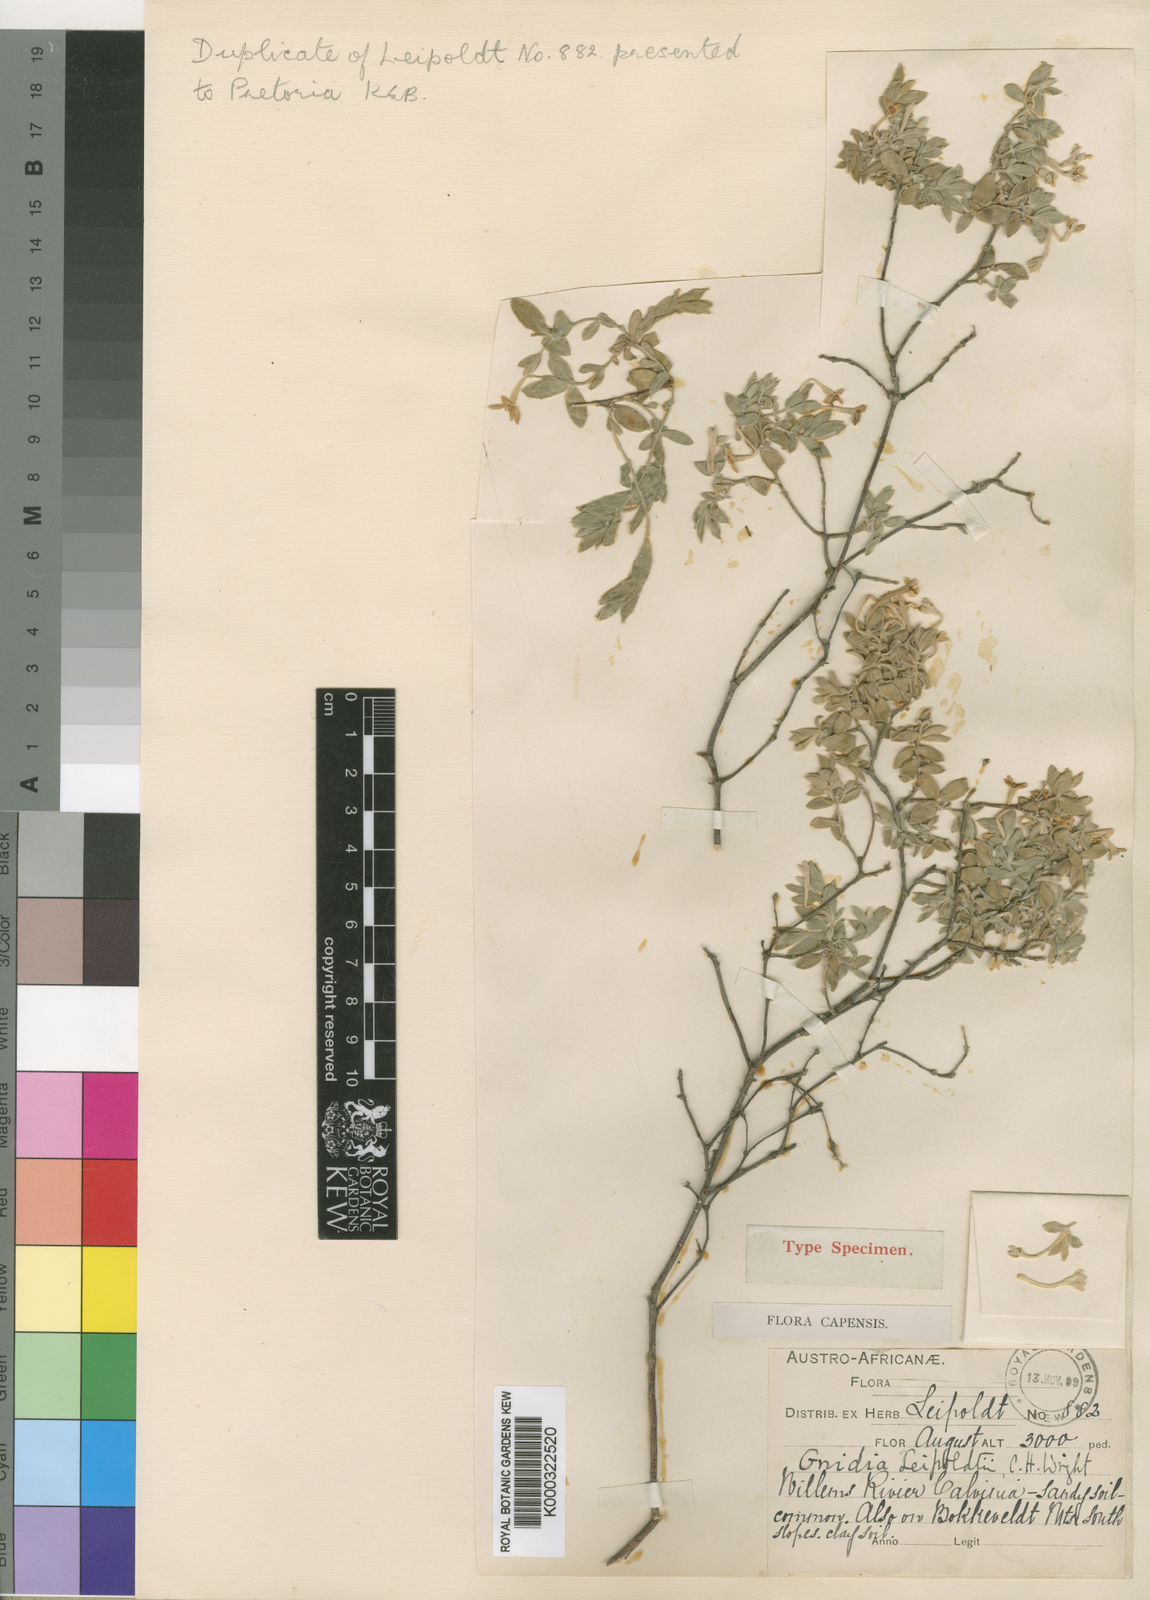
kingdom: Plantae
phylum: Tracheophyta
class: Magnoliopsida
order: Malvales
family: Thymelaeaceae
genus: Gnidia
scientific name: Gnidia leipoldtii
